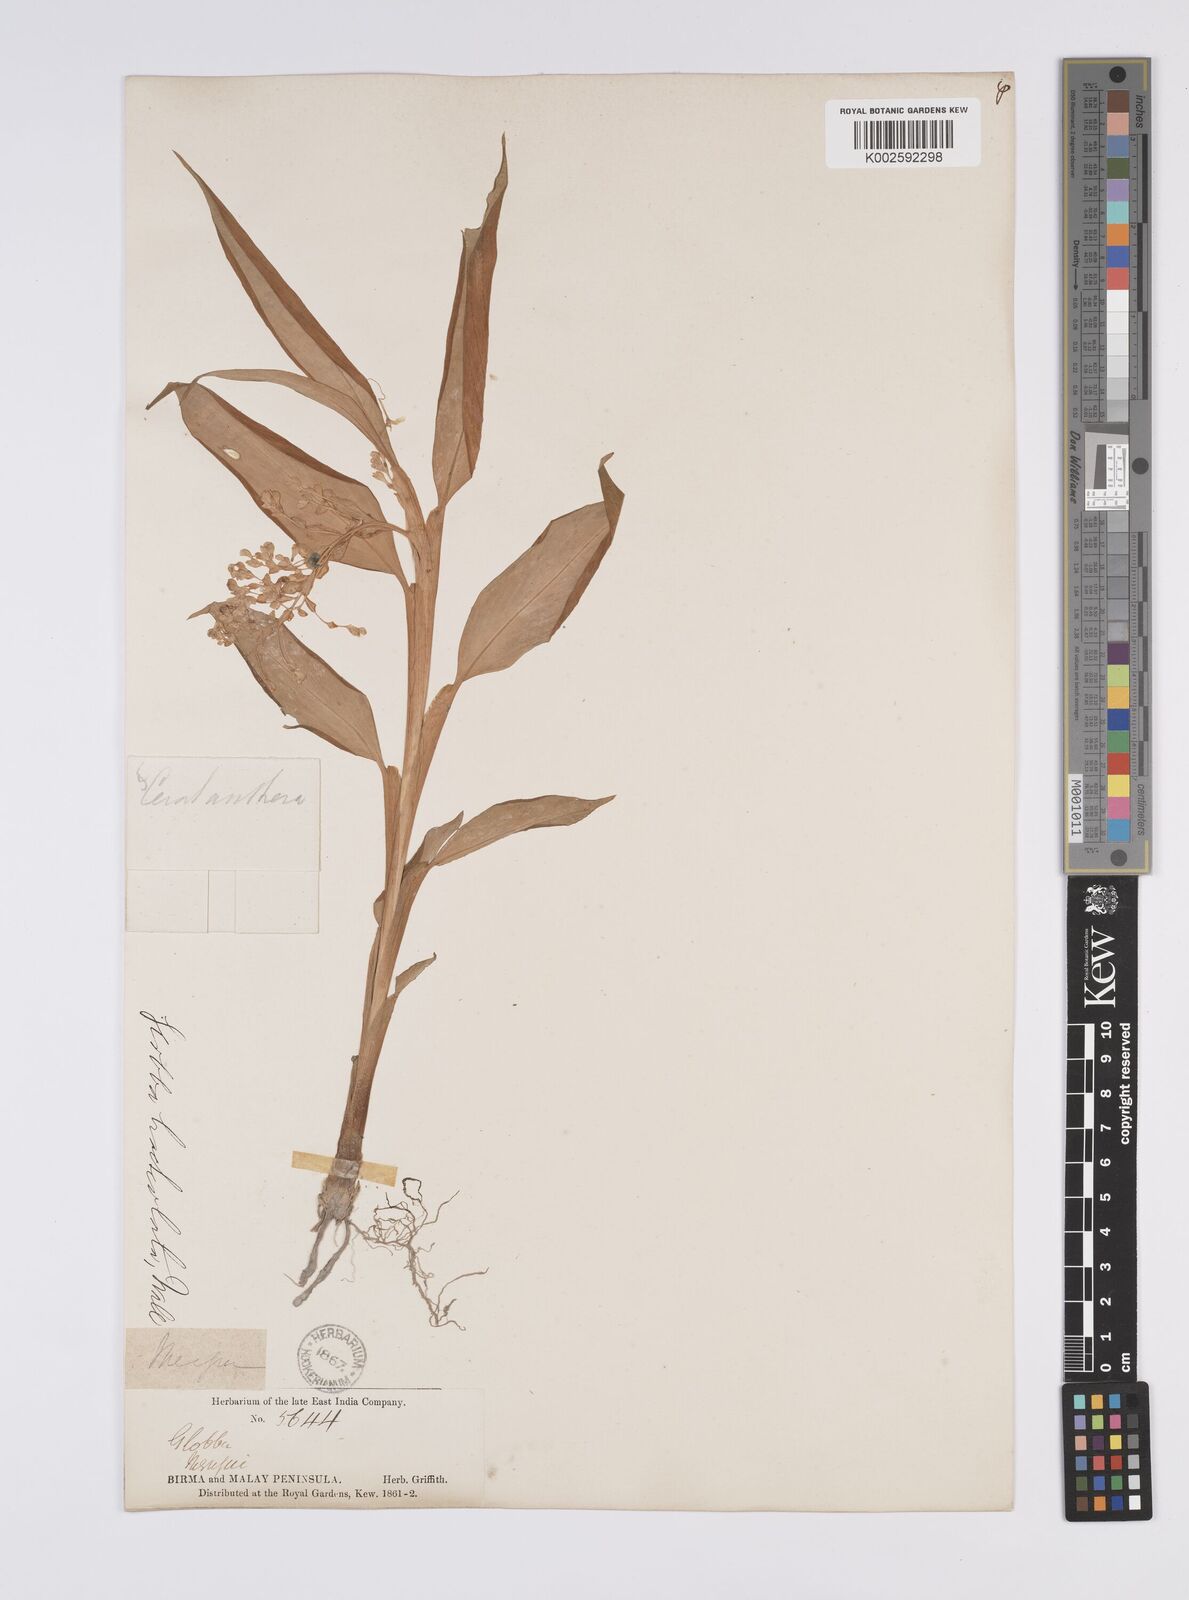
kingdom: Plantae
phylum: Tracheophyta
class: Liliopsida
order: Zingiberales
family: Zingiberaceae
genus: Globba
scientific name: Globba bracteolata
